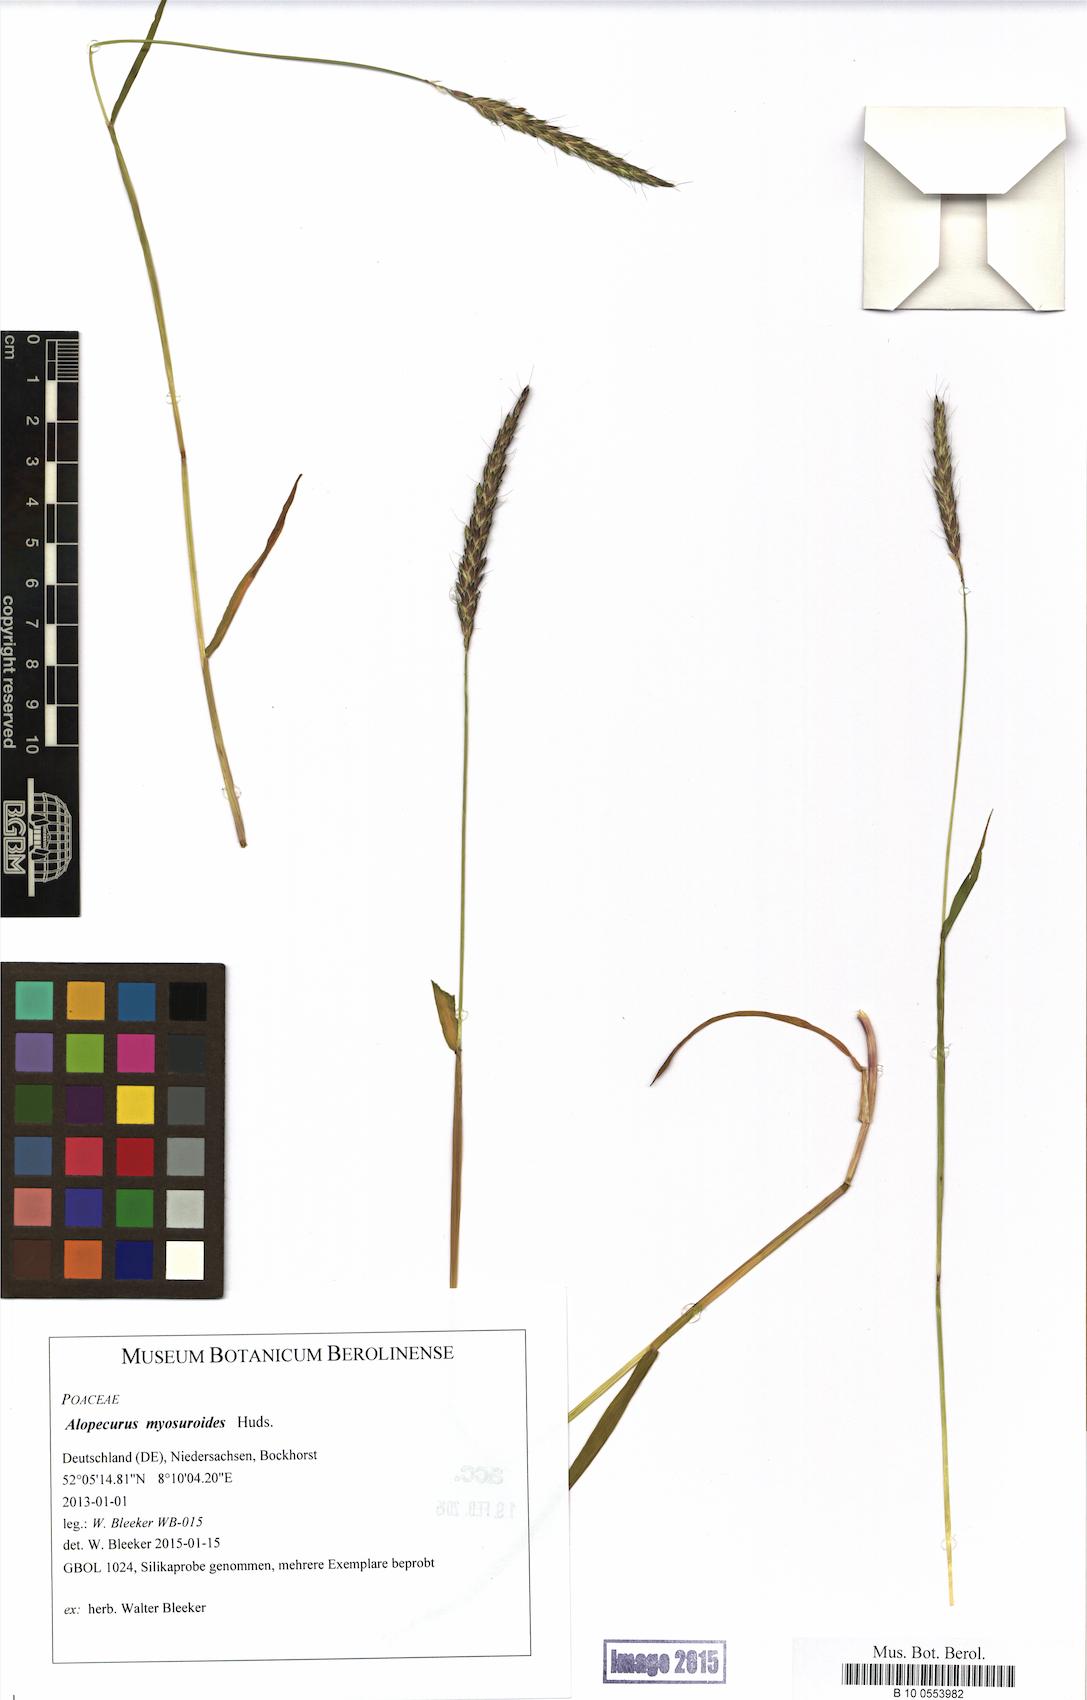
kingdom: Plantae
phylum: Tracheophyta
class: Liliopsida
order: Poales
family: Poaceae
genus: Alopecurus
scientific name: Alopecurus myosuroides
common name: Black-grass
